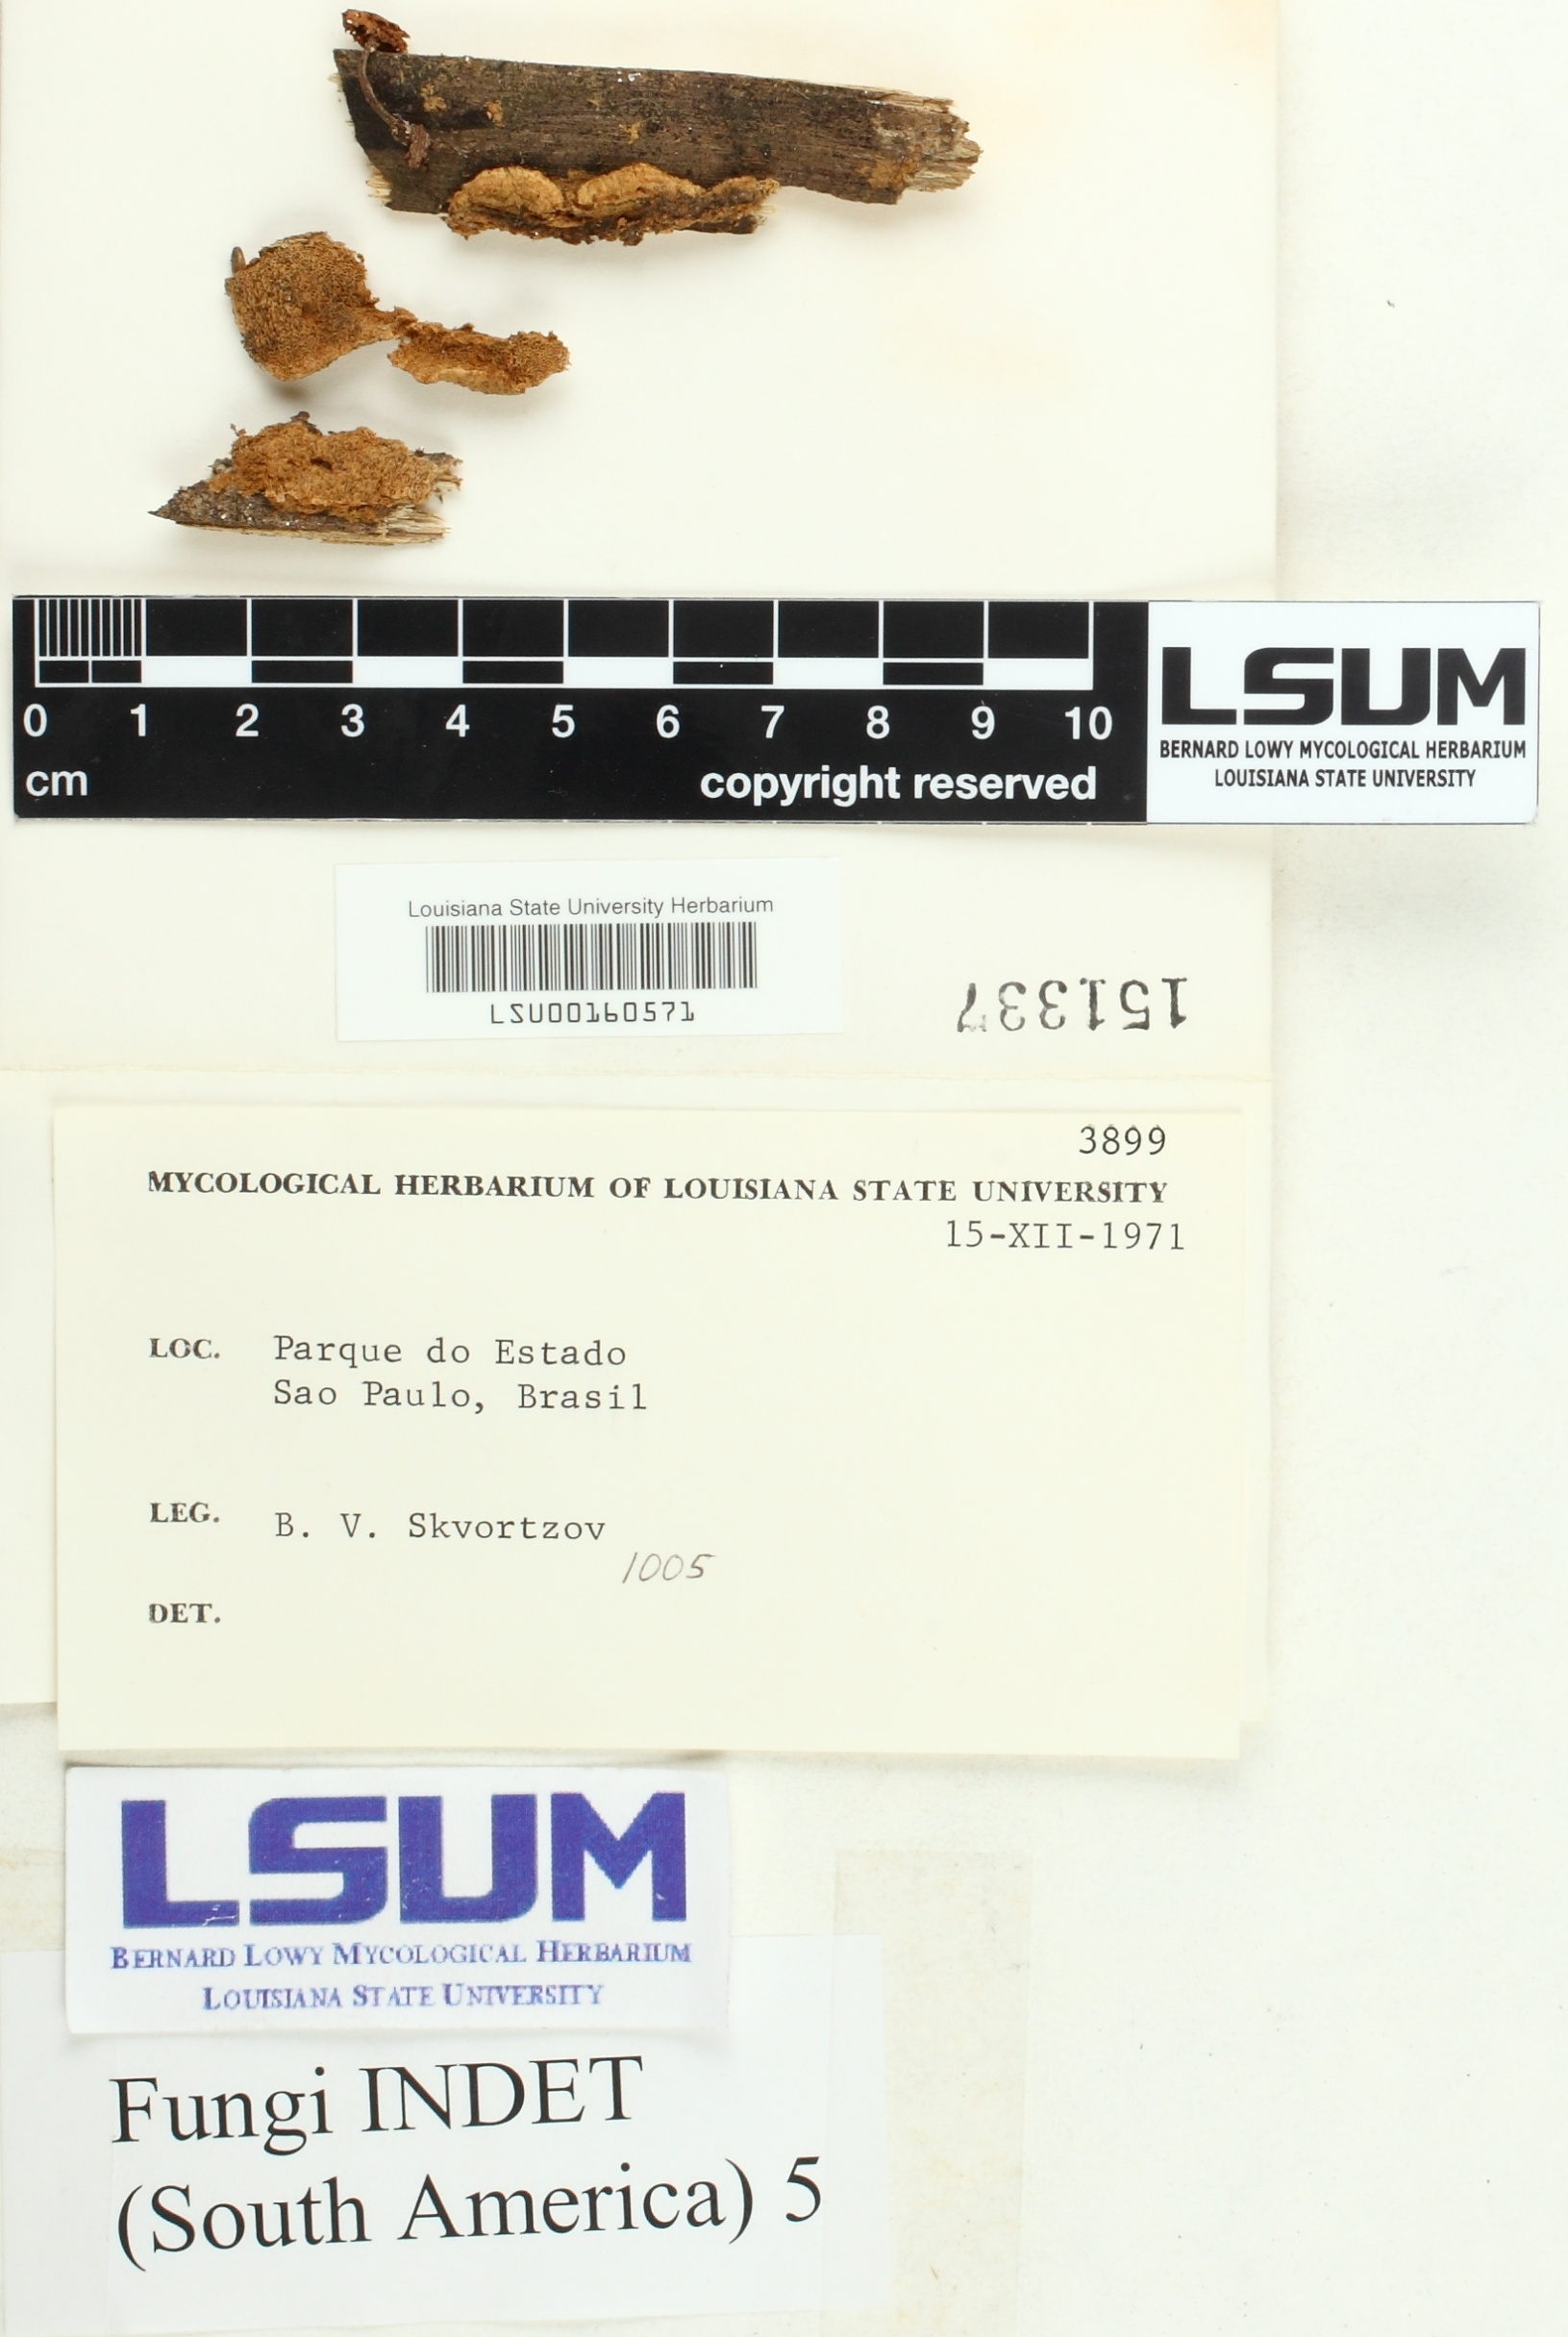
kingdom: Fungi
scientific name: Fungi
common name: Fungi
